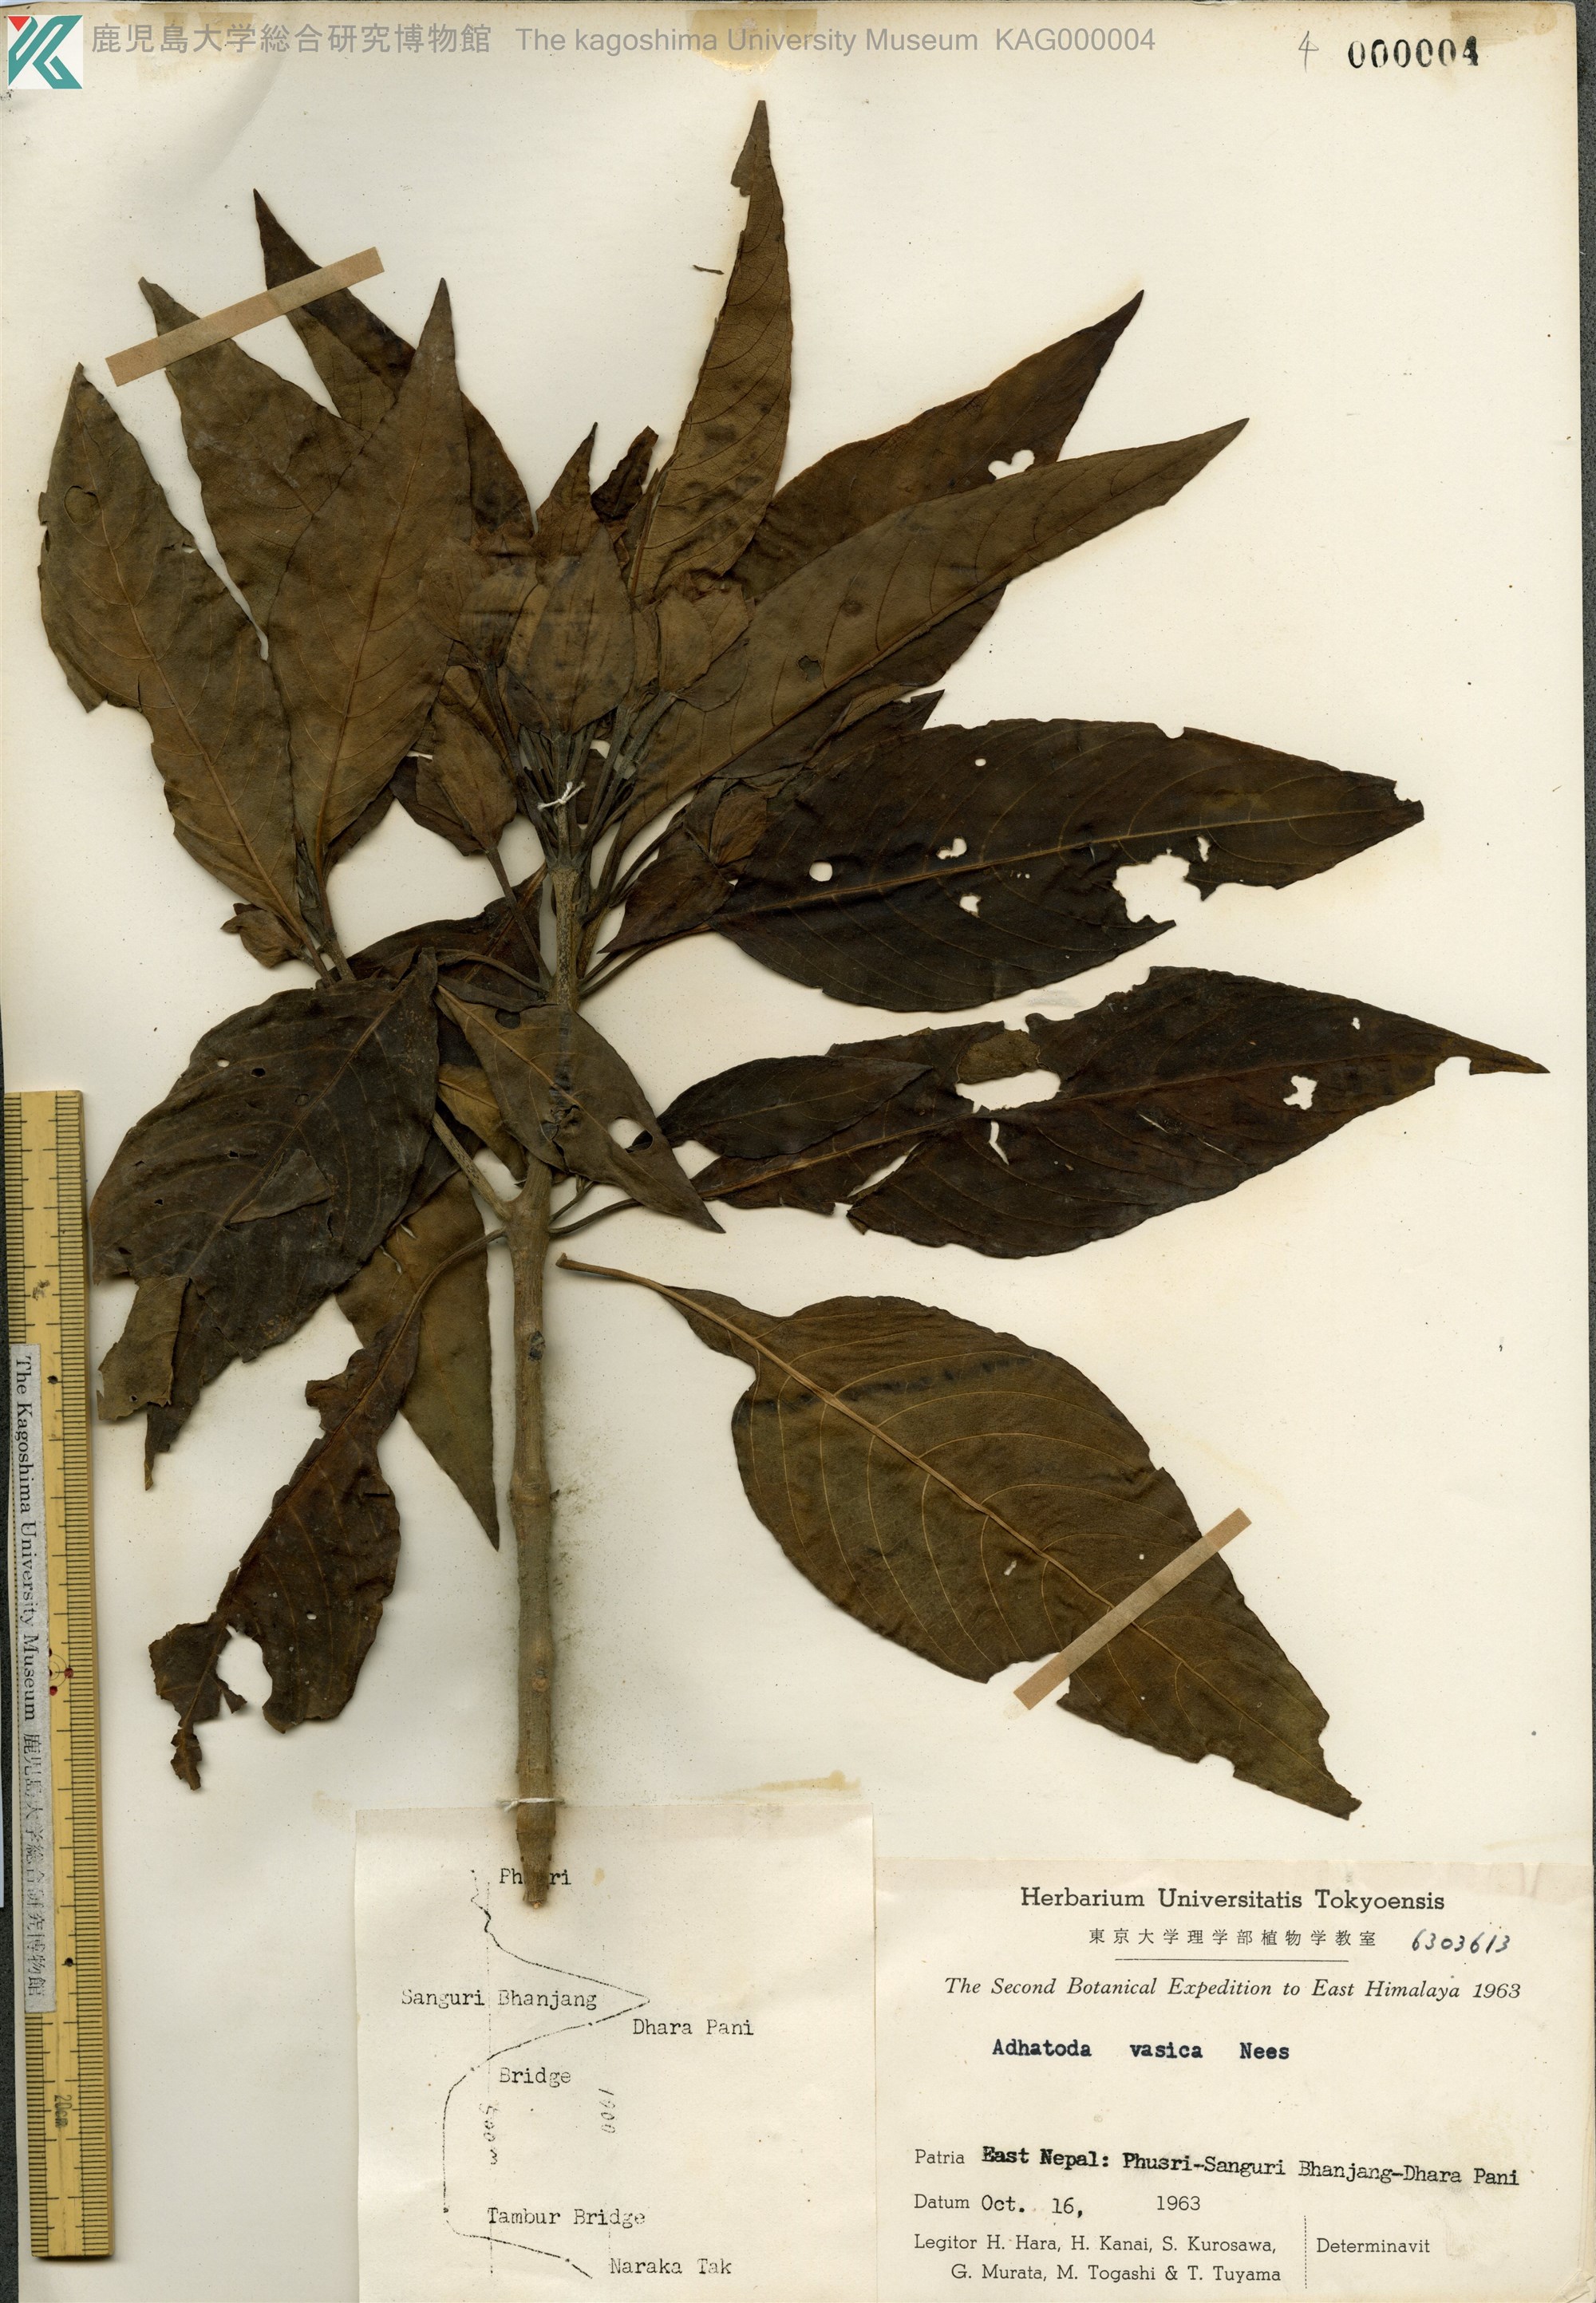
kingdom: Plantae
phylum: Tracheophyta
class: Magnoliopsida
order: Lamiales
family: Acanthaceae
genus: Justicia
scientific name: Justicia adhatoda
